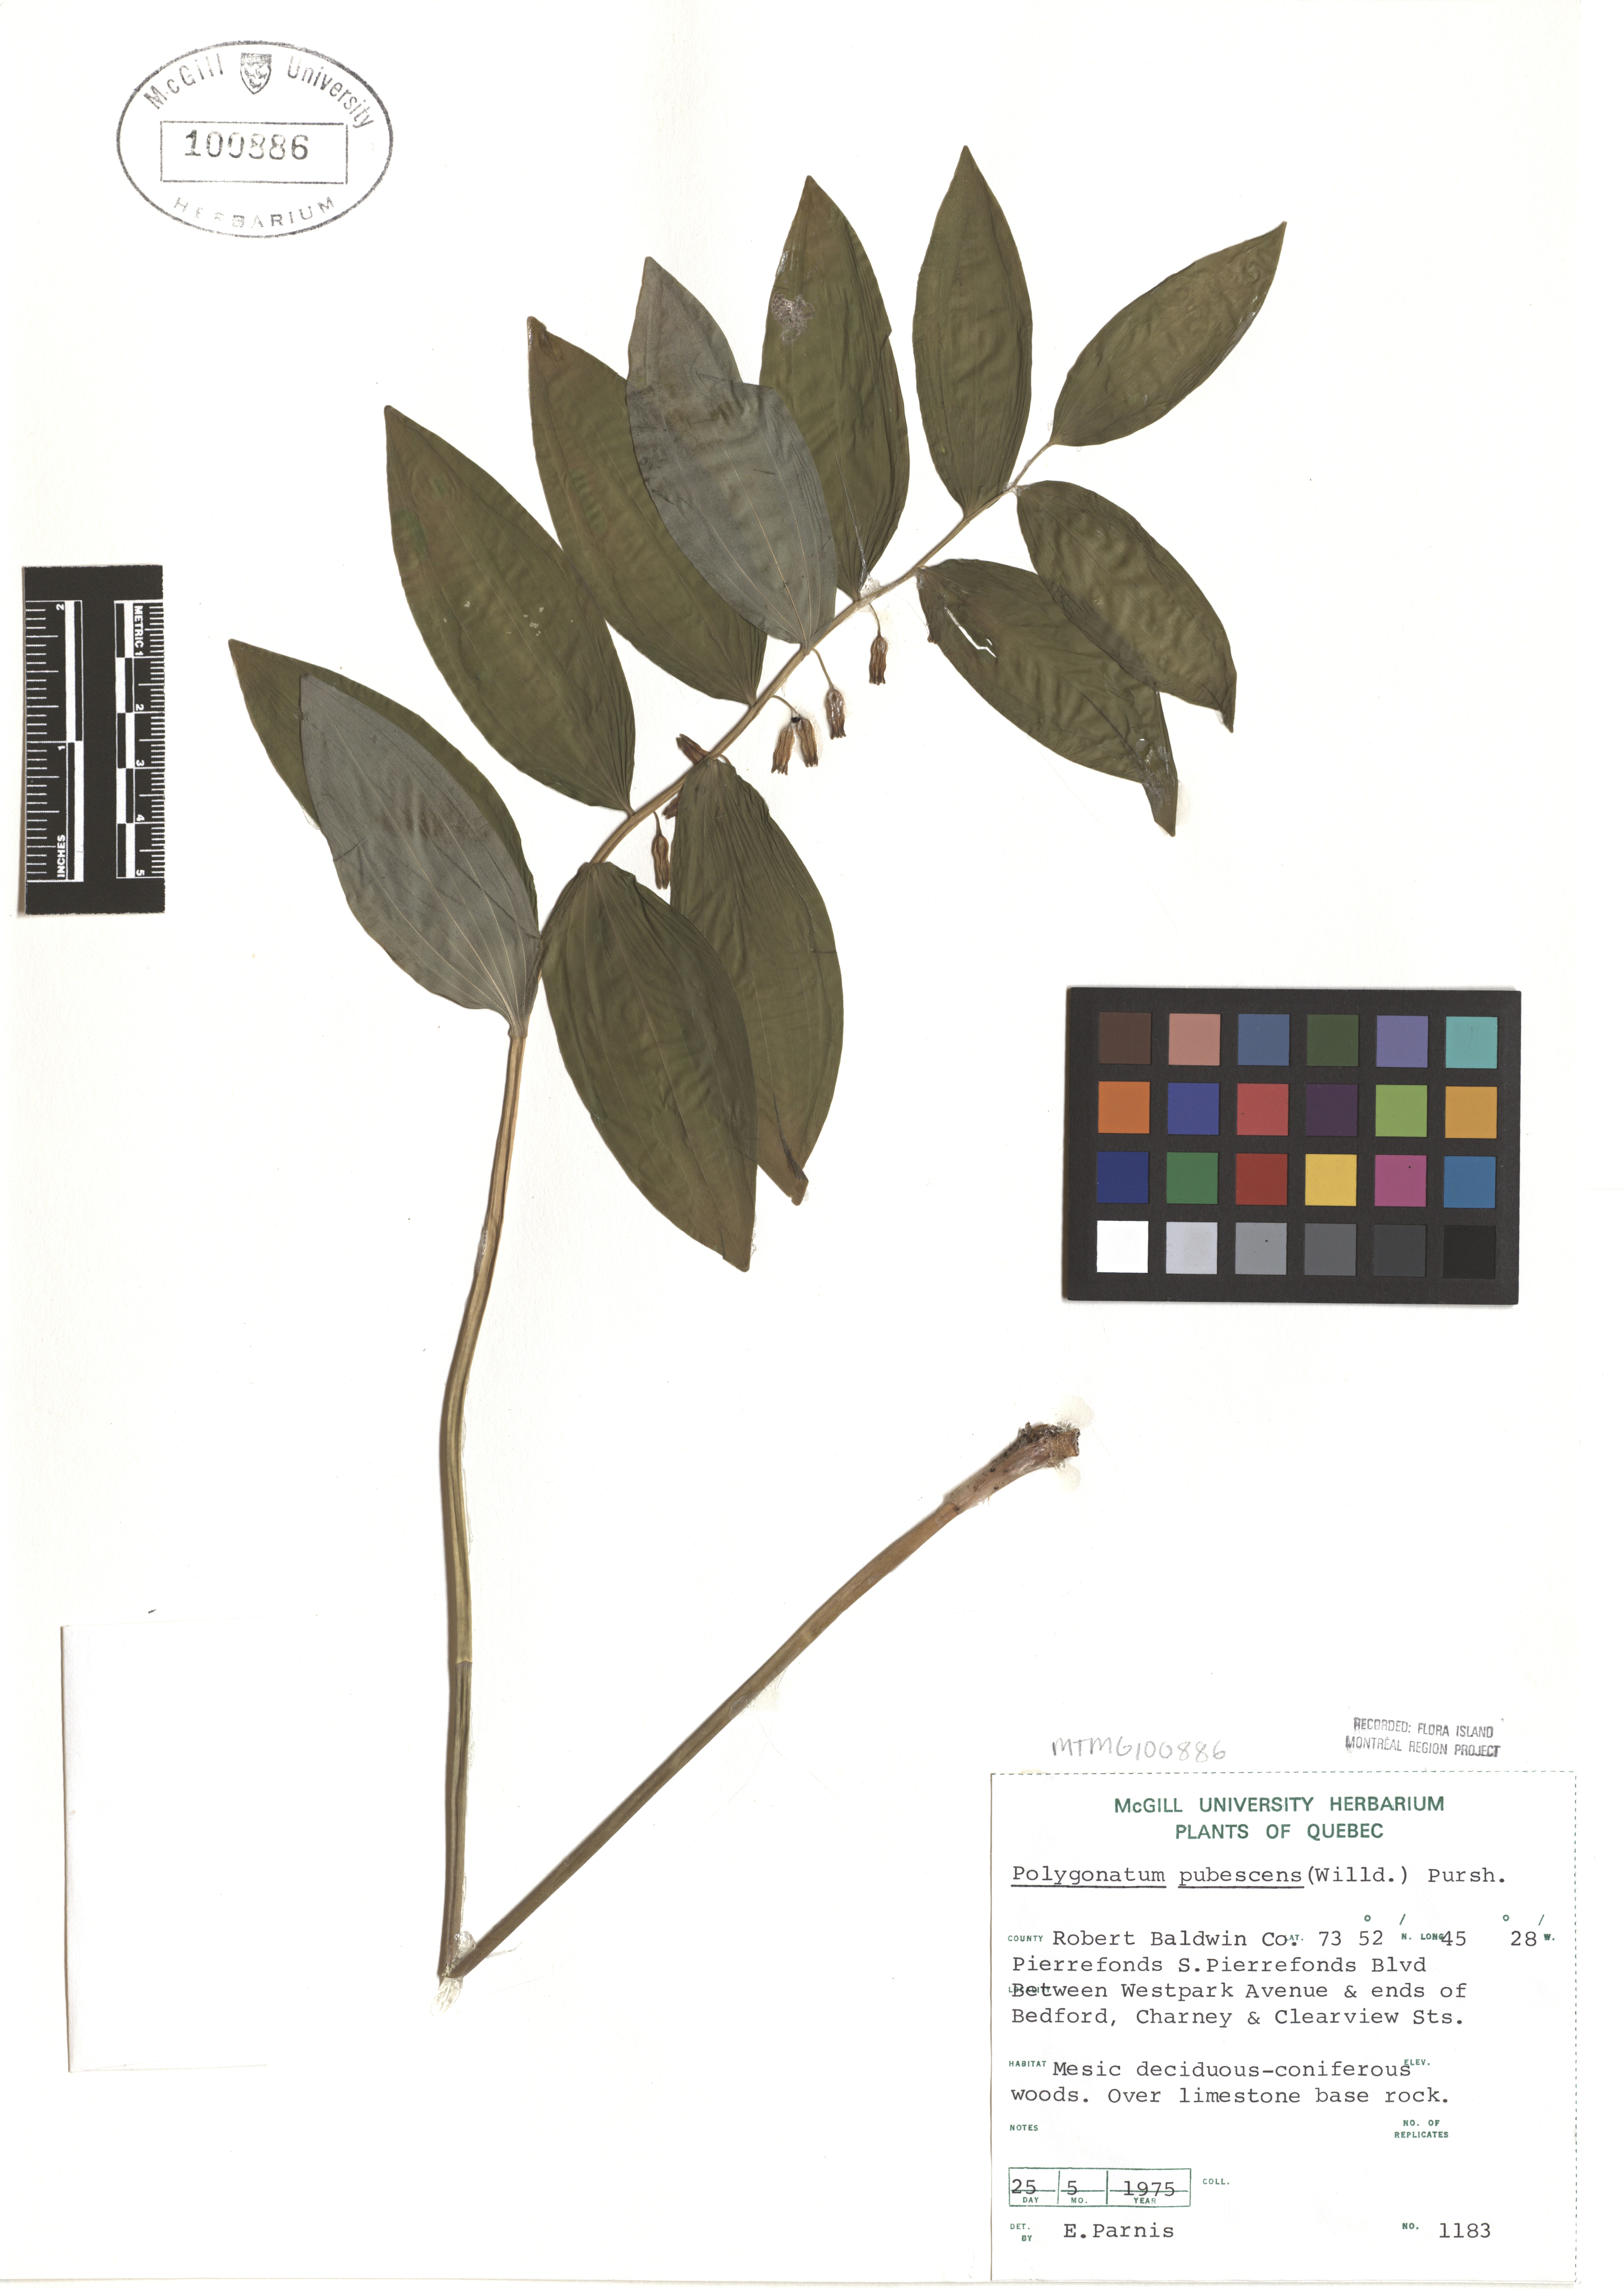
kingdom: Plantae
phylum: Tracheophyta
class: Liliopsida
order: Asparagales
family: Asparagaceae
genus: Polygonatum
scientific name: Polygonatum pubescens
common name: Downy solomon's seal
